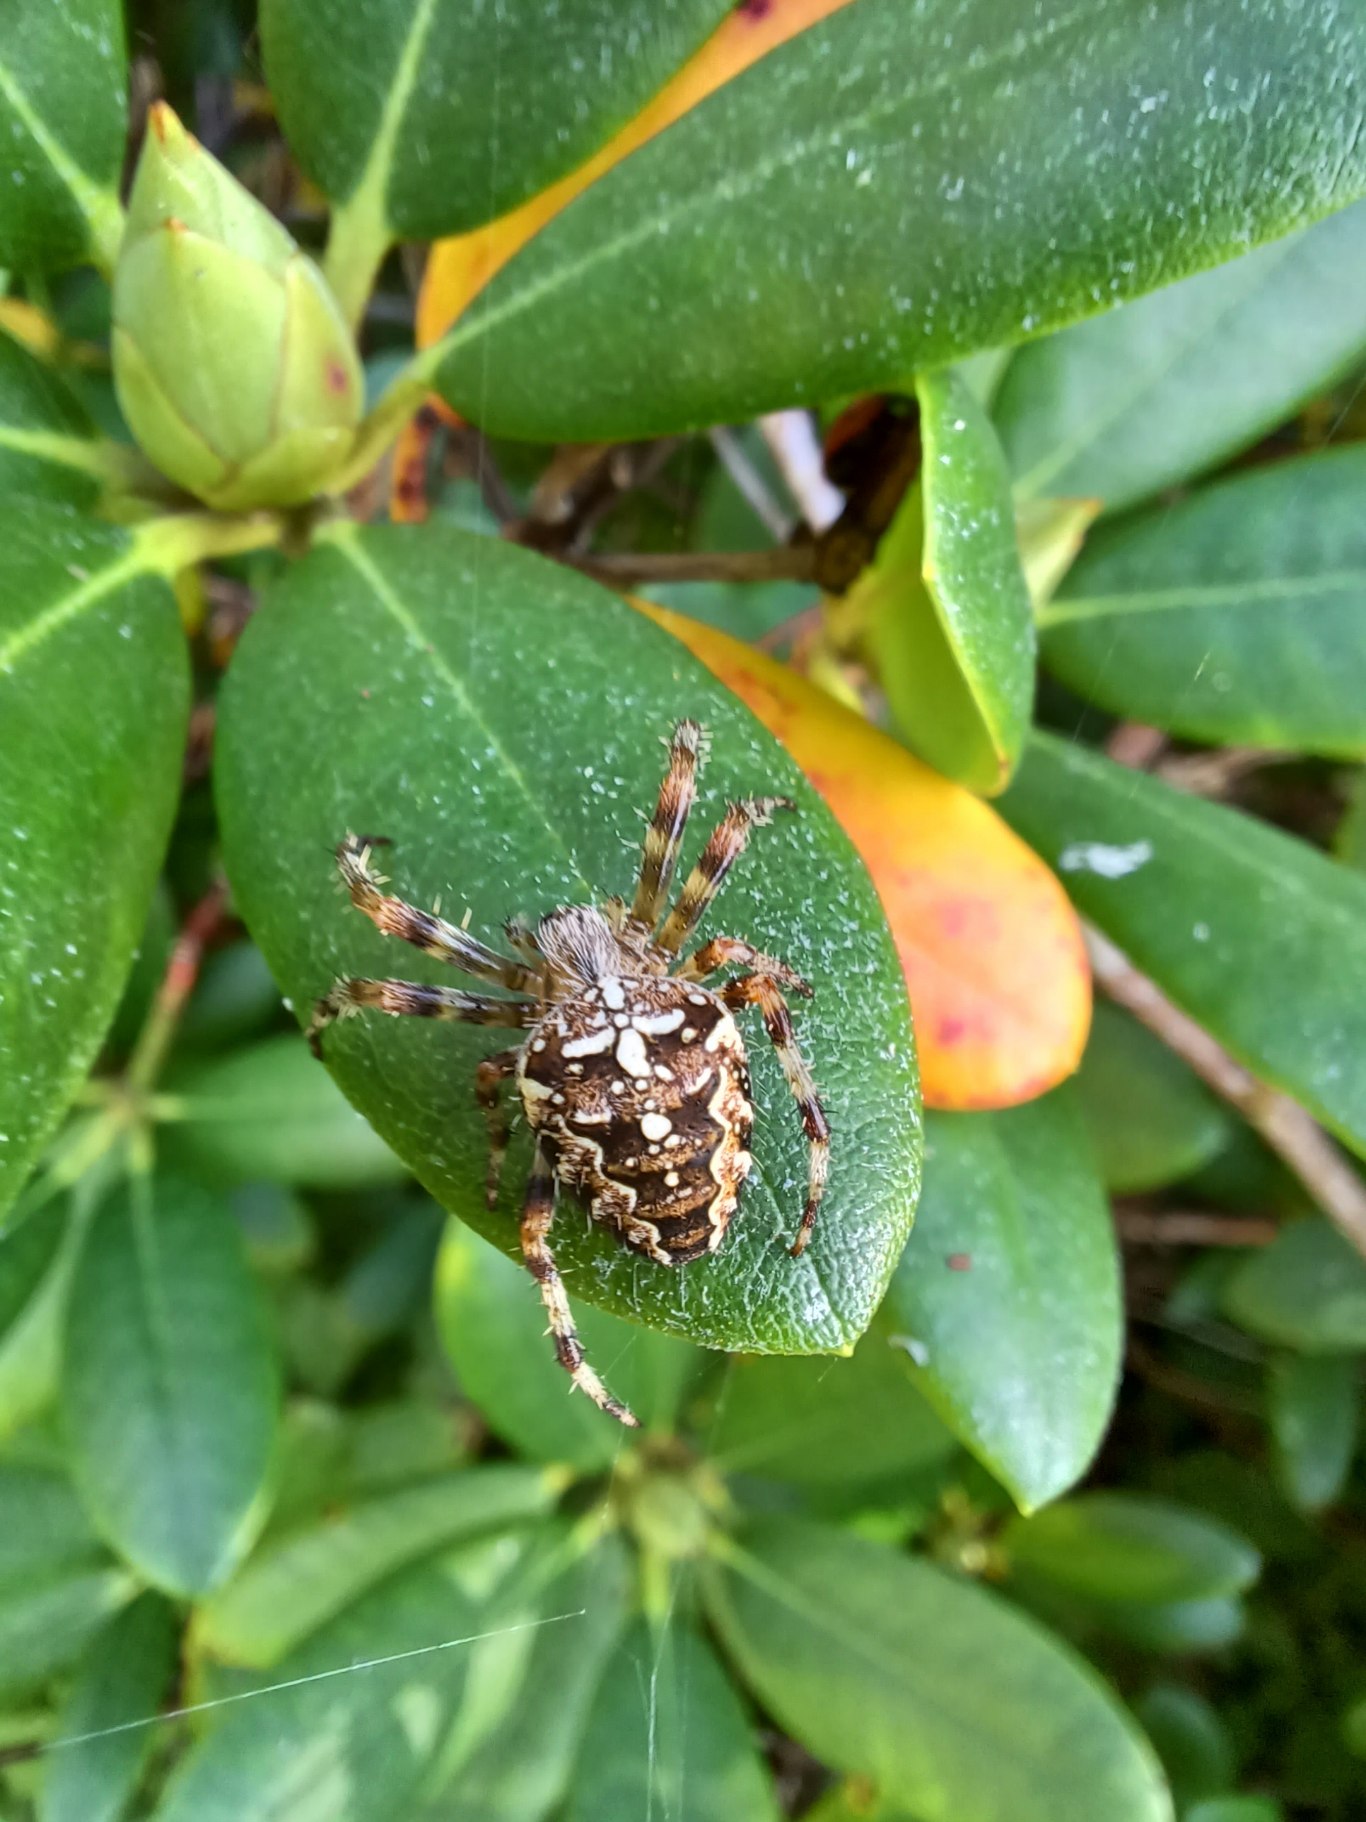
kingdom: Animalia
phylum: Arthropoda
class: Arachnida
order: Araneae
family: Araneidae
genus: Araneus
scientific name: Araneus diadematus
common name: Korsedderkop
